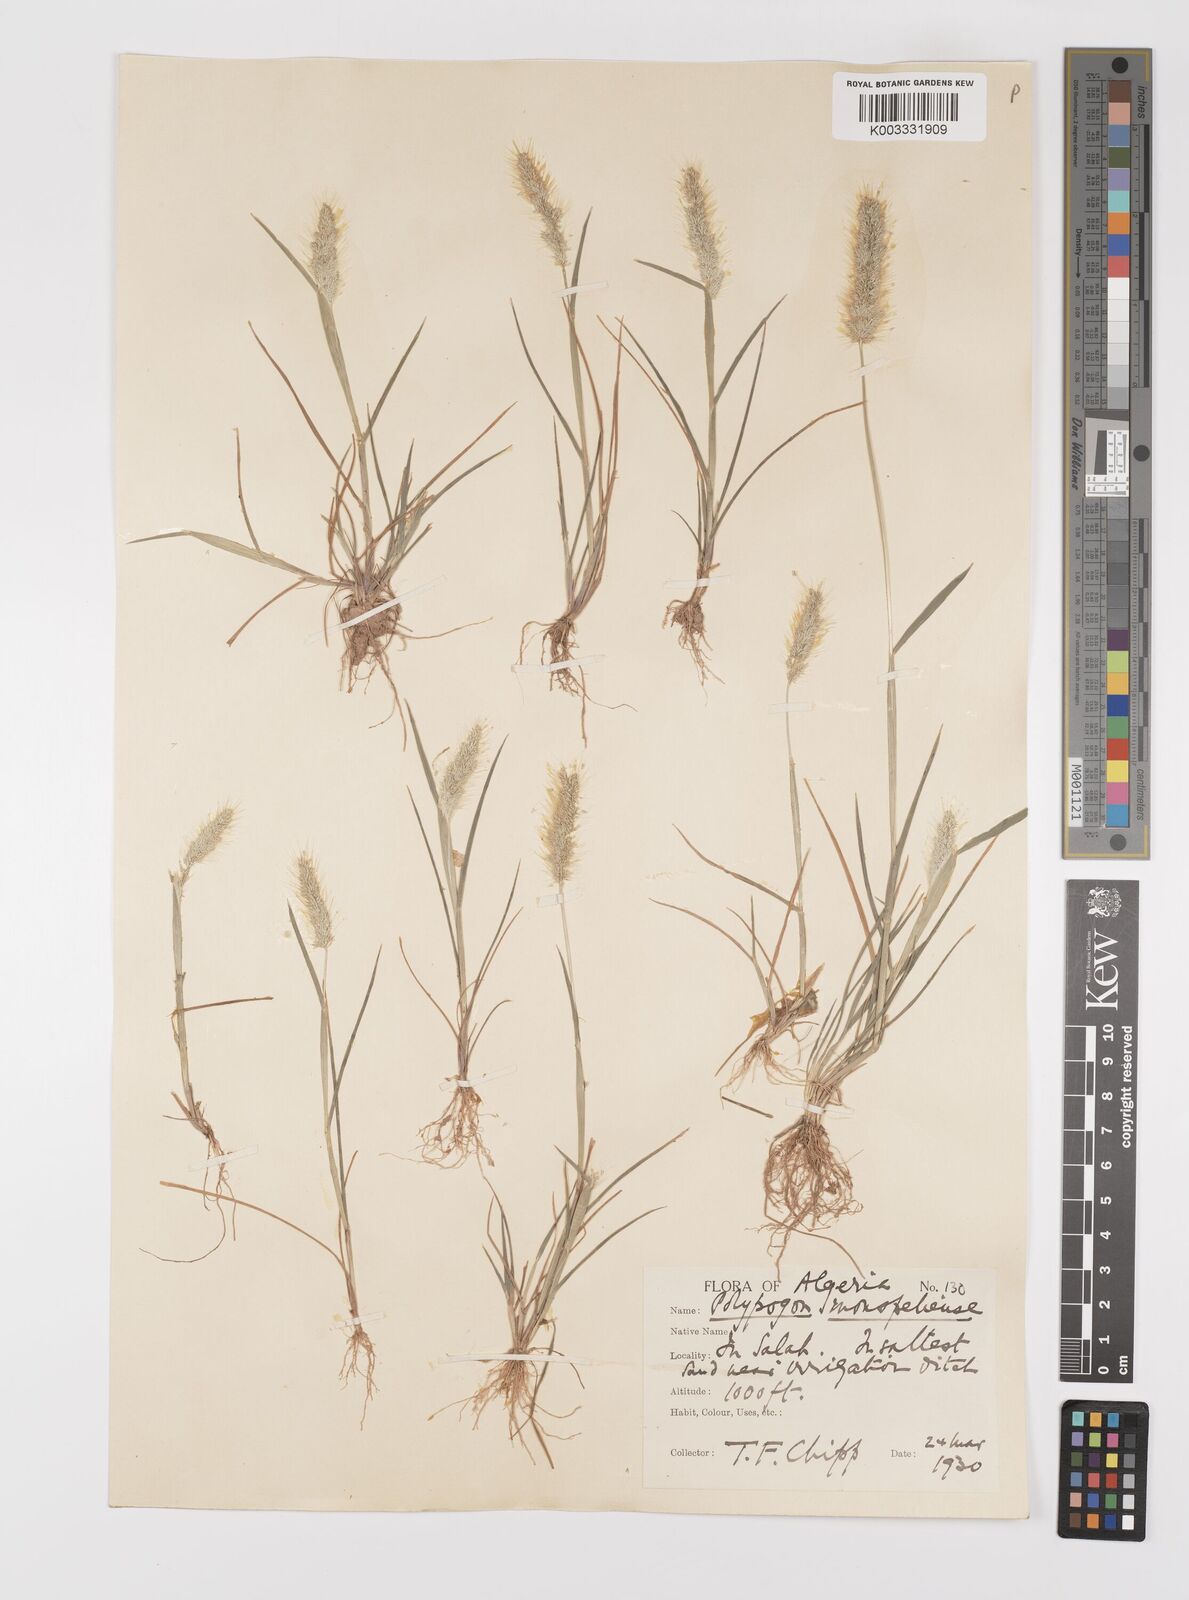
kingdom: Plantae
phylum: Tracheophyta
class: Liliopsida
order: Poales
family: Poaceae
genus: Polypogon
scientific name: Polypogon monspeliensis
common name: Annual rabbitsfoot grass
